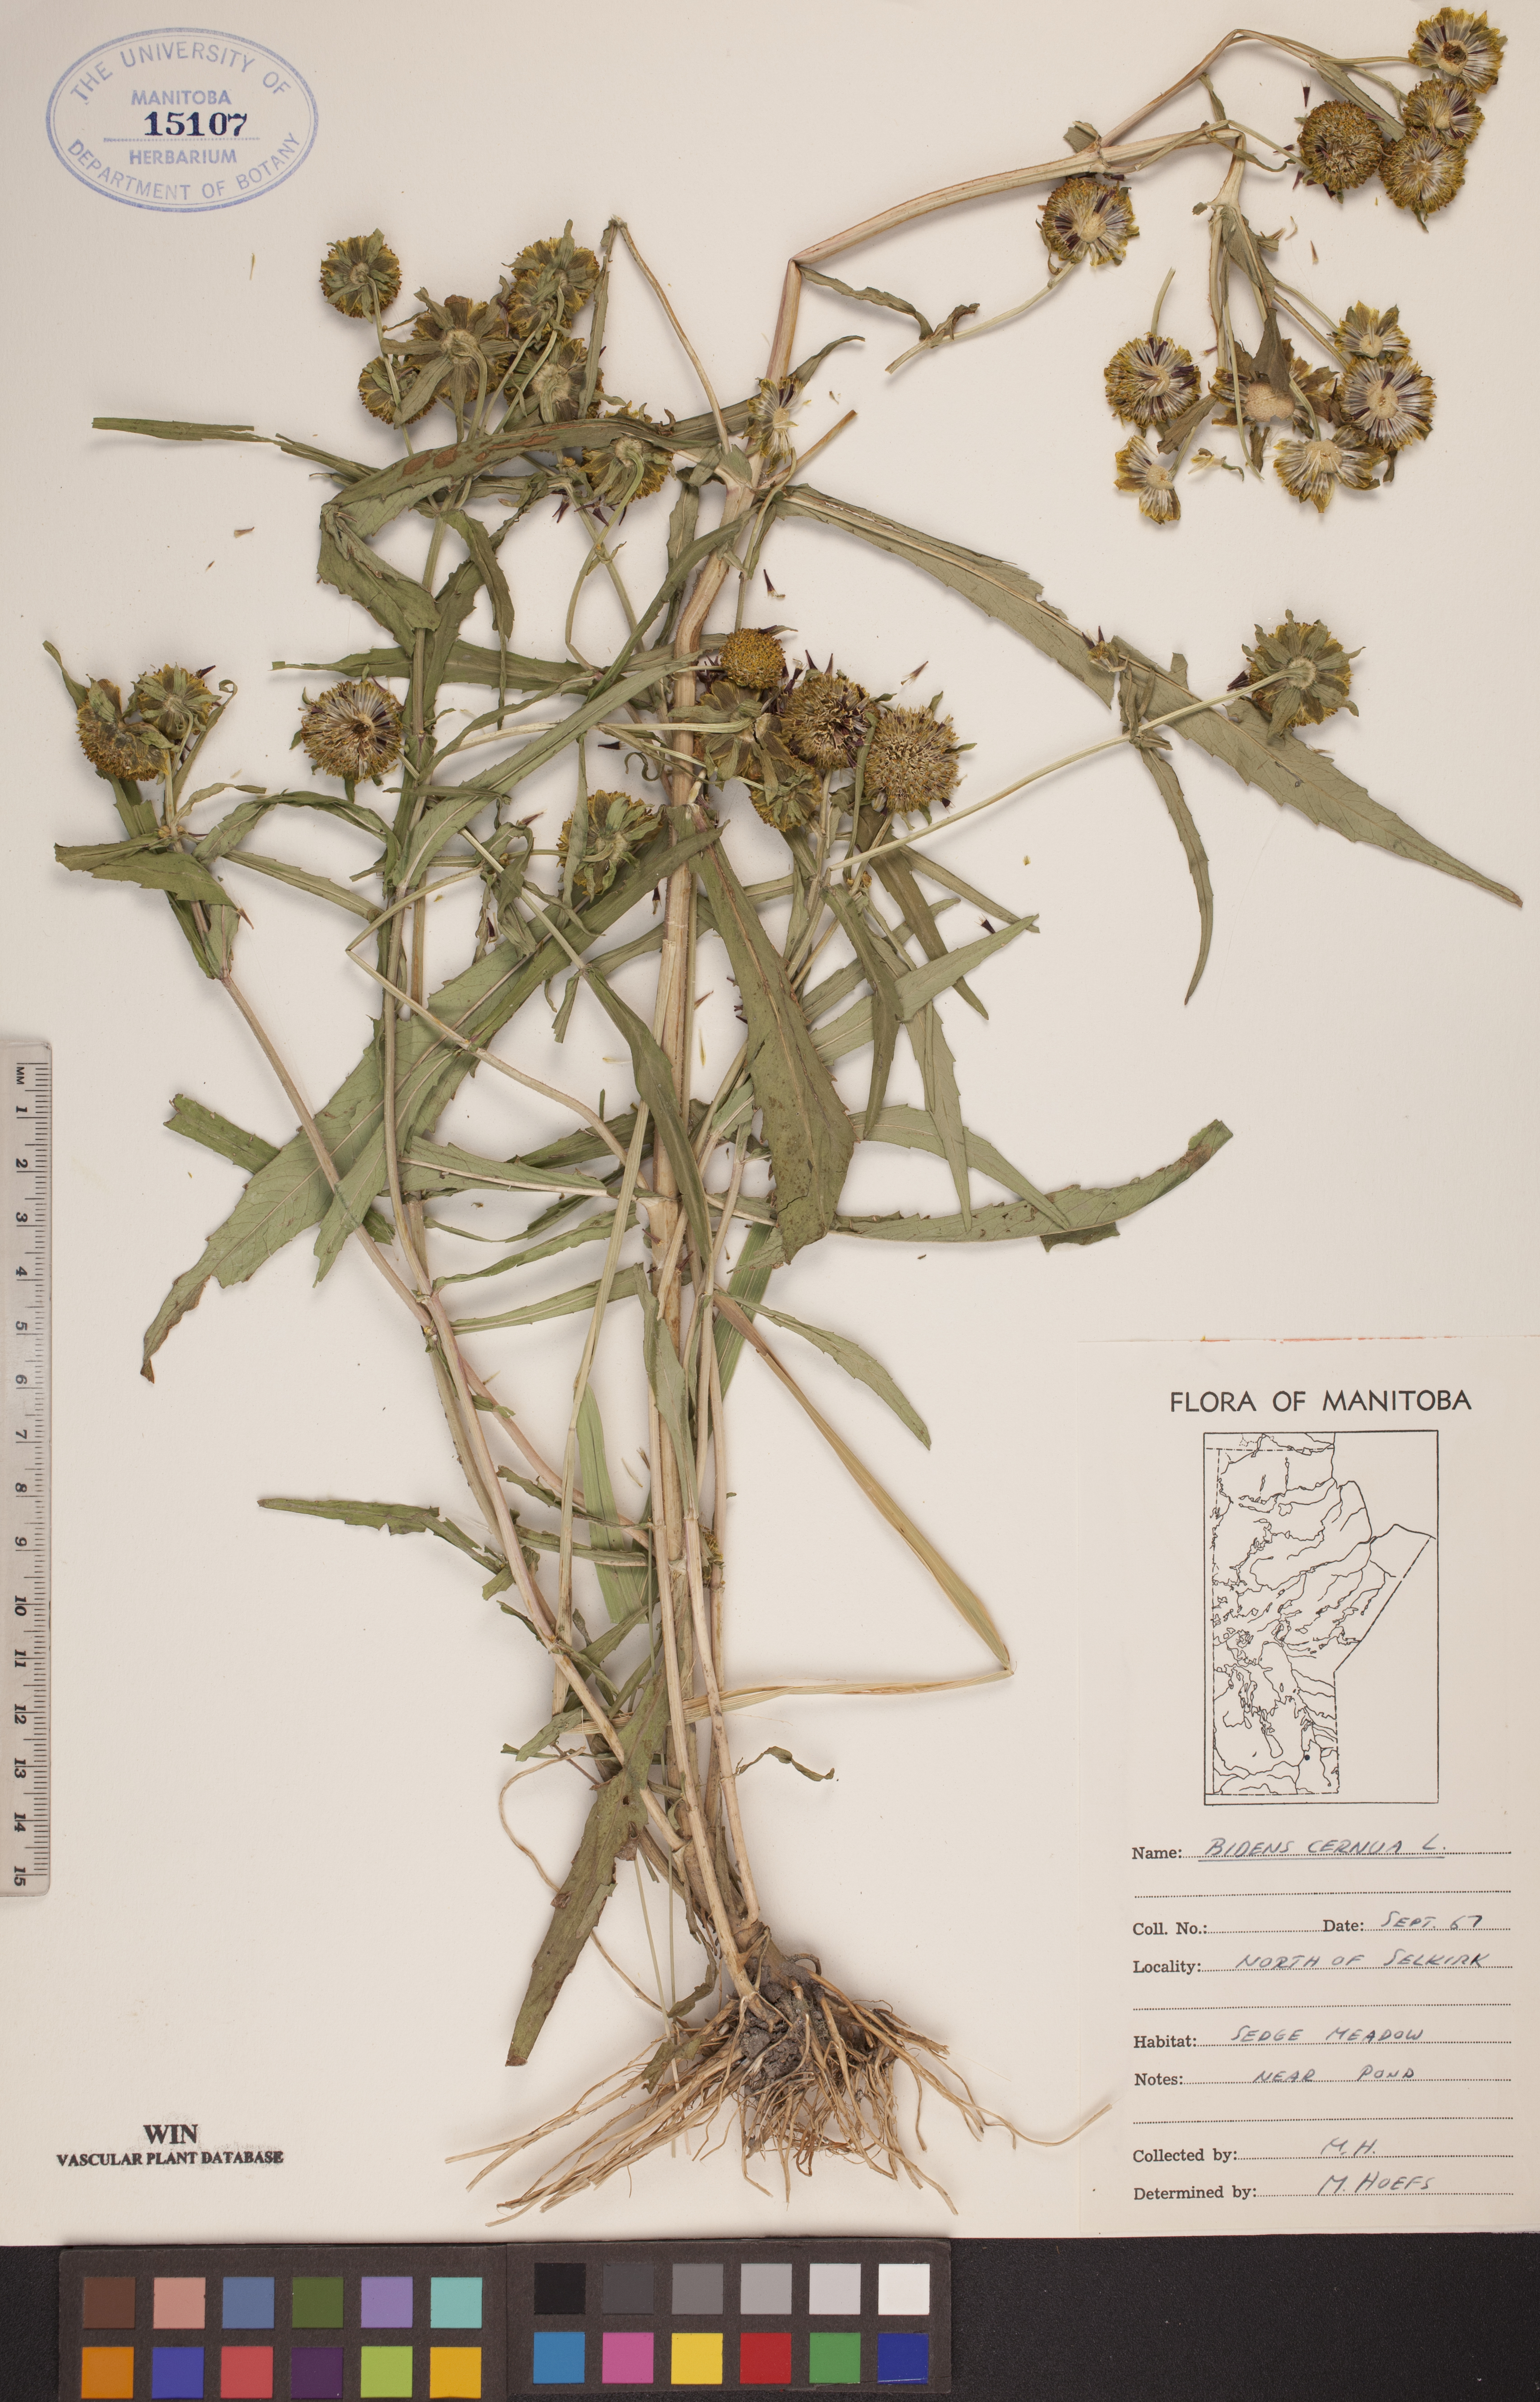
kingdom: Plantae
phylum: Tracheophyta
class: Magnoliopsida
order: Asterales
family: Asteraceae
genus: Bidens
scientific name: Bidens cernua
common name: Nodding bur-marigold
